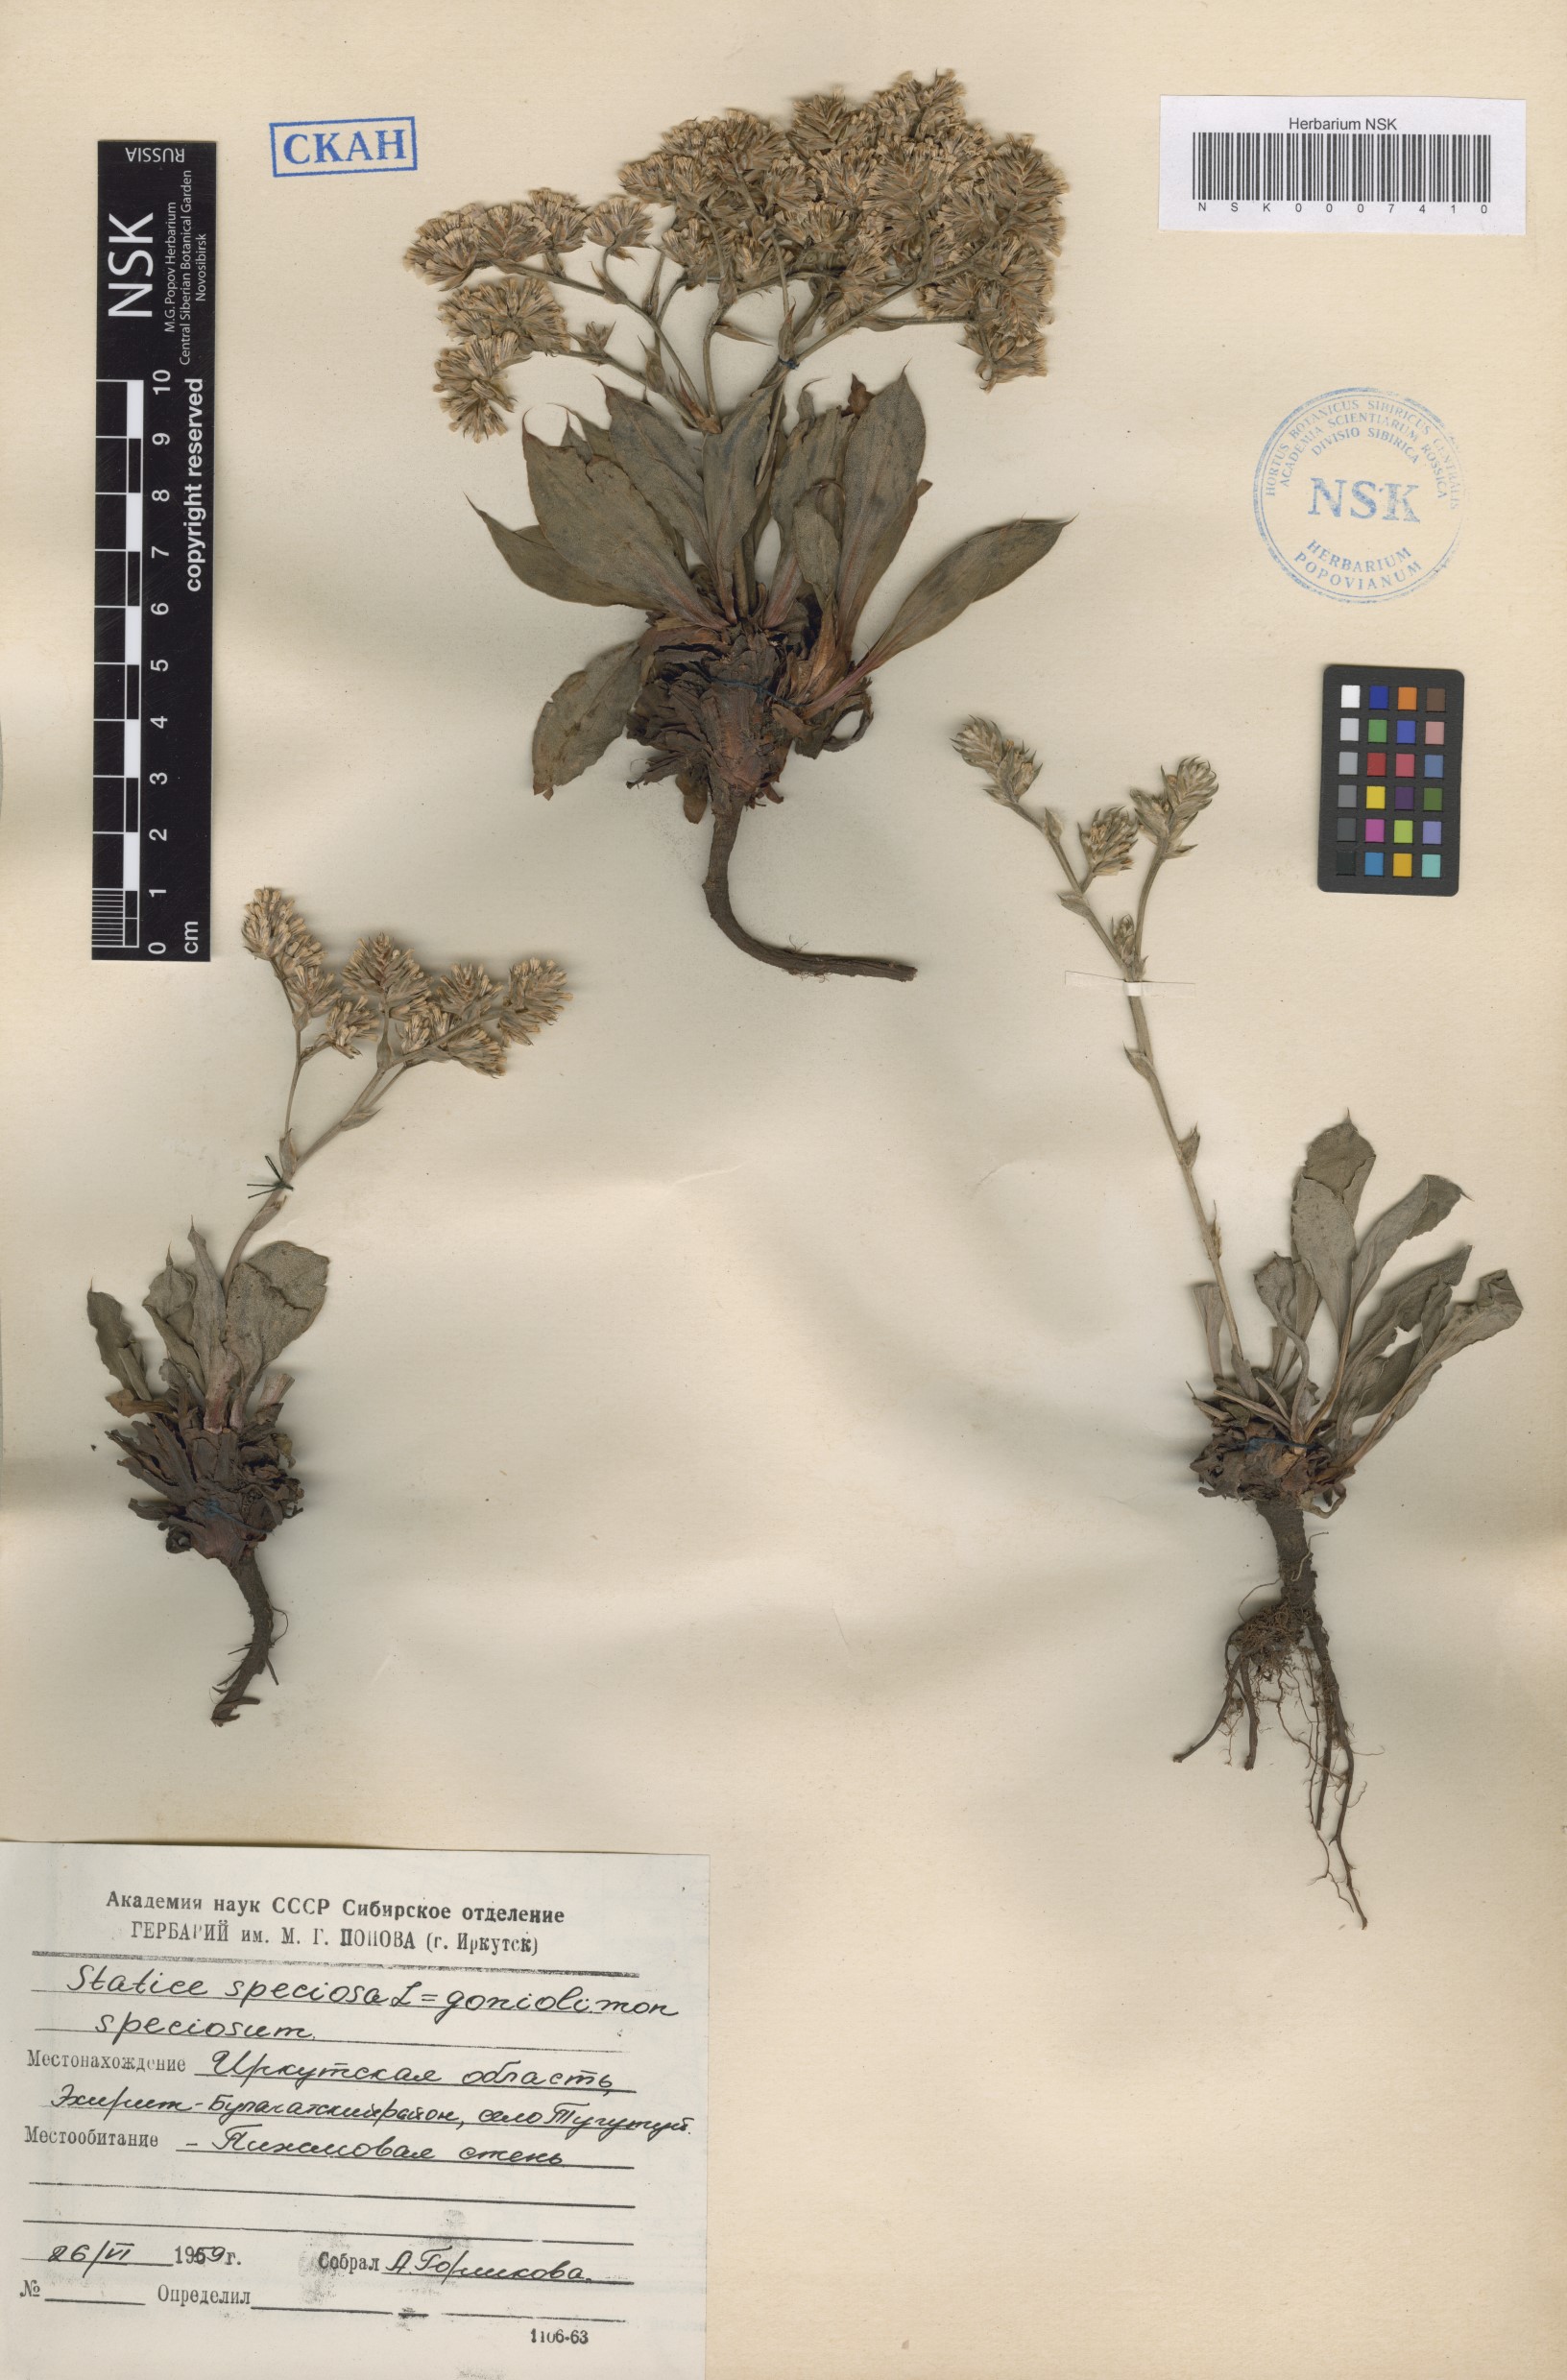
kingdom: Plantae
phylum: Tracheophyta
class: Magnoliopsida
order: Caryophyllales
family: Plumbaginaceae
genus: Goniolimon
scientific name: Goniolimon speciosum
